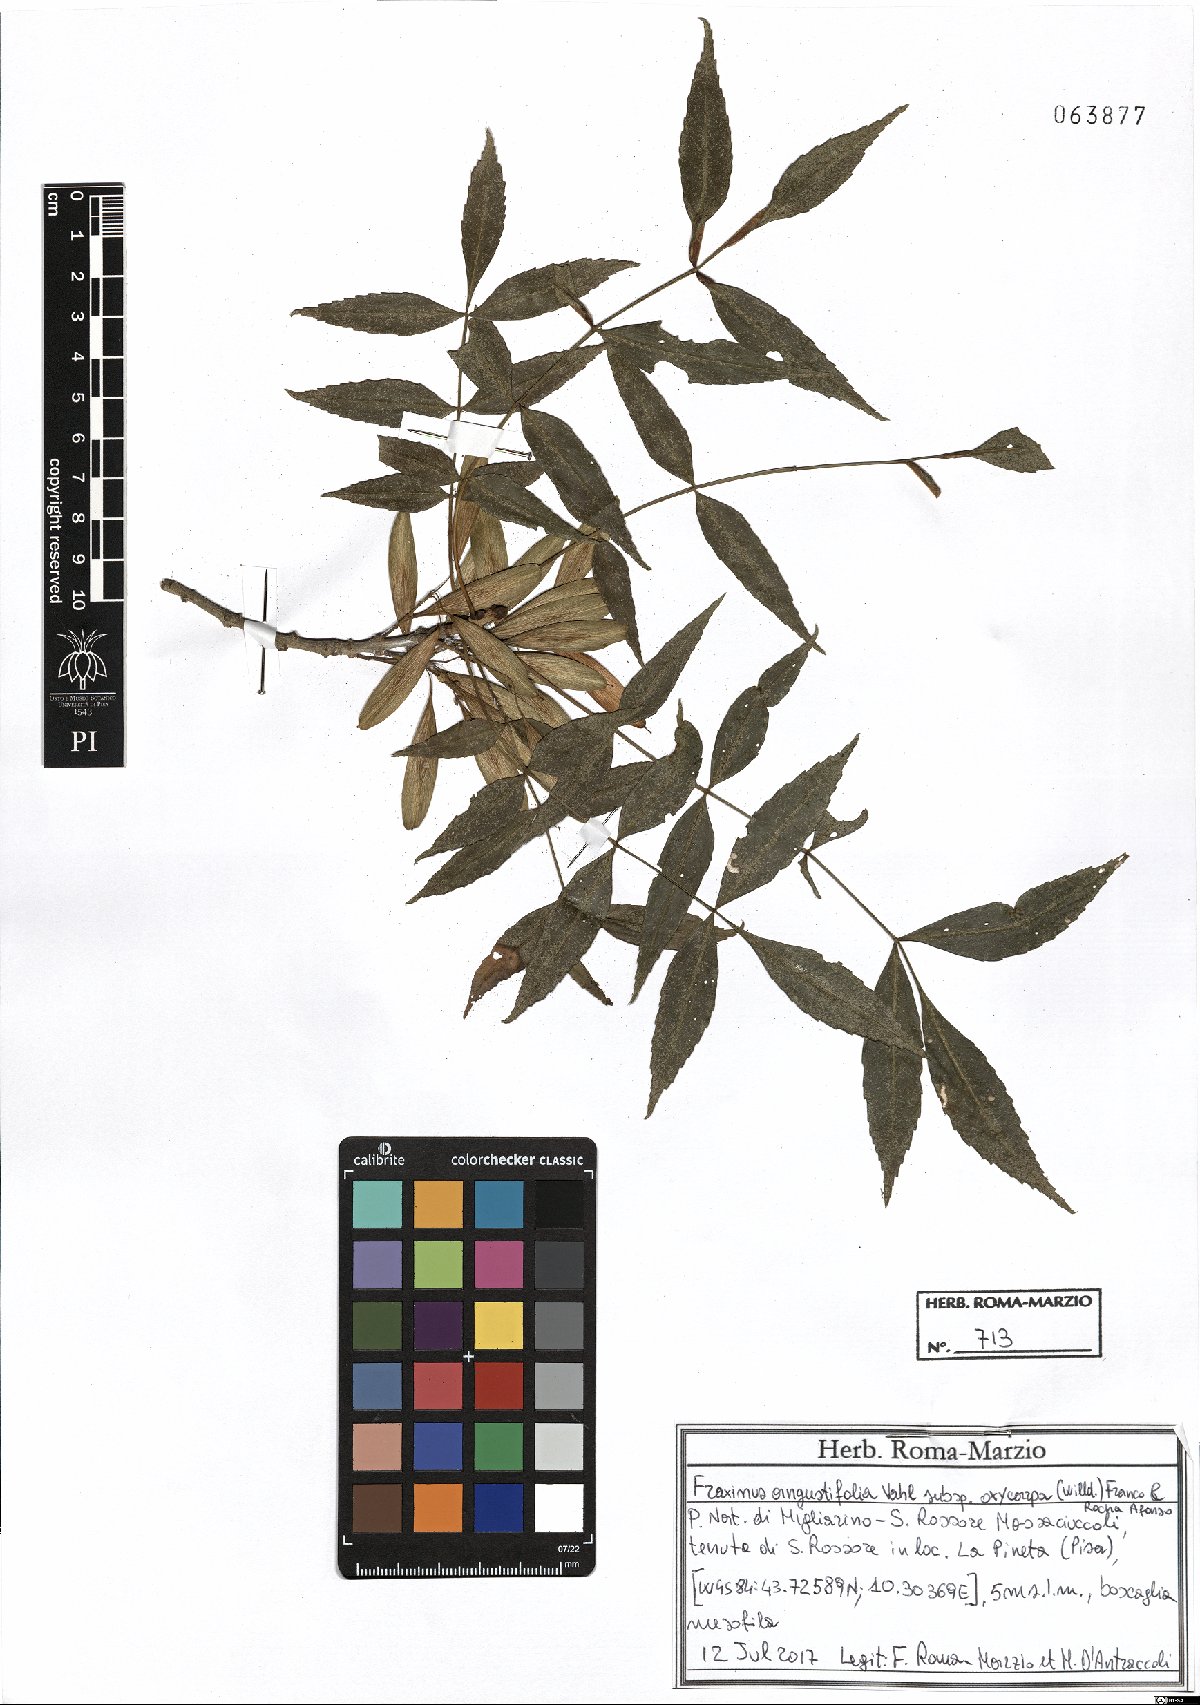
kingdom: Plantae
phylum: Tracheophyta
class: Magnoliopsida
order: Lamiales
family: Oleaceae
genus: Fraxinus
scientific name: Fraxinus angustifolia
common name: Narrow-leafed ash
